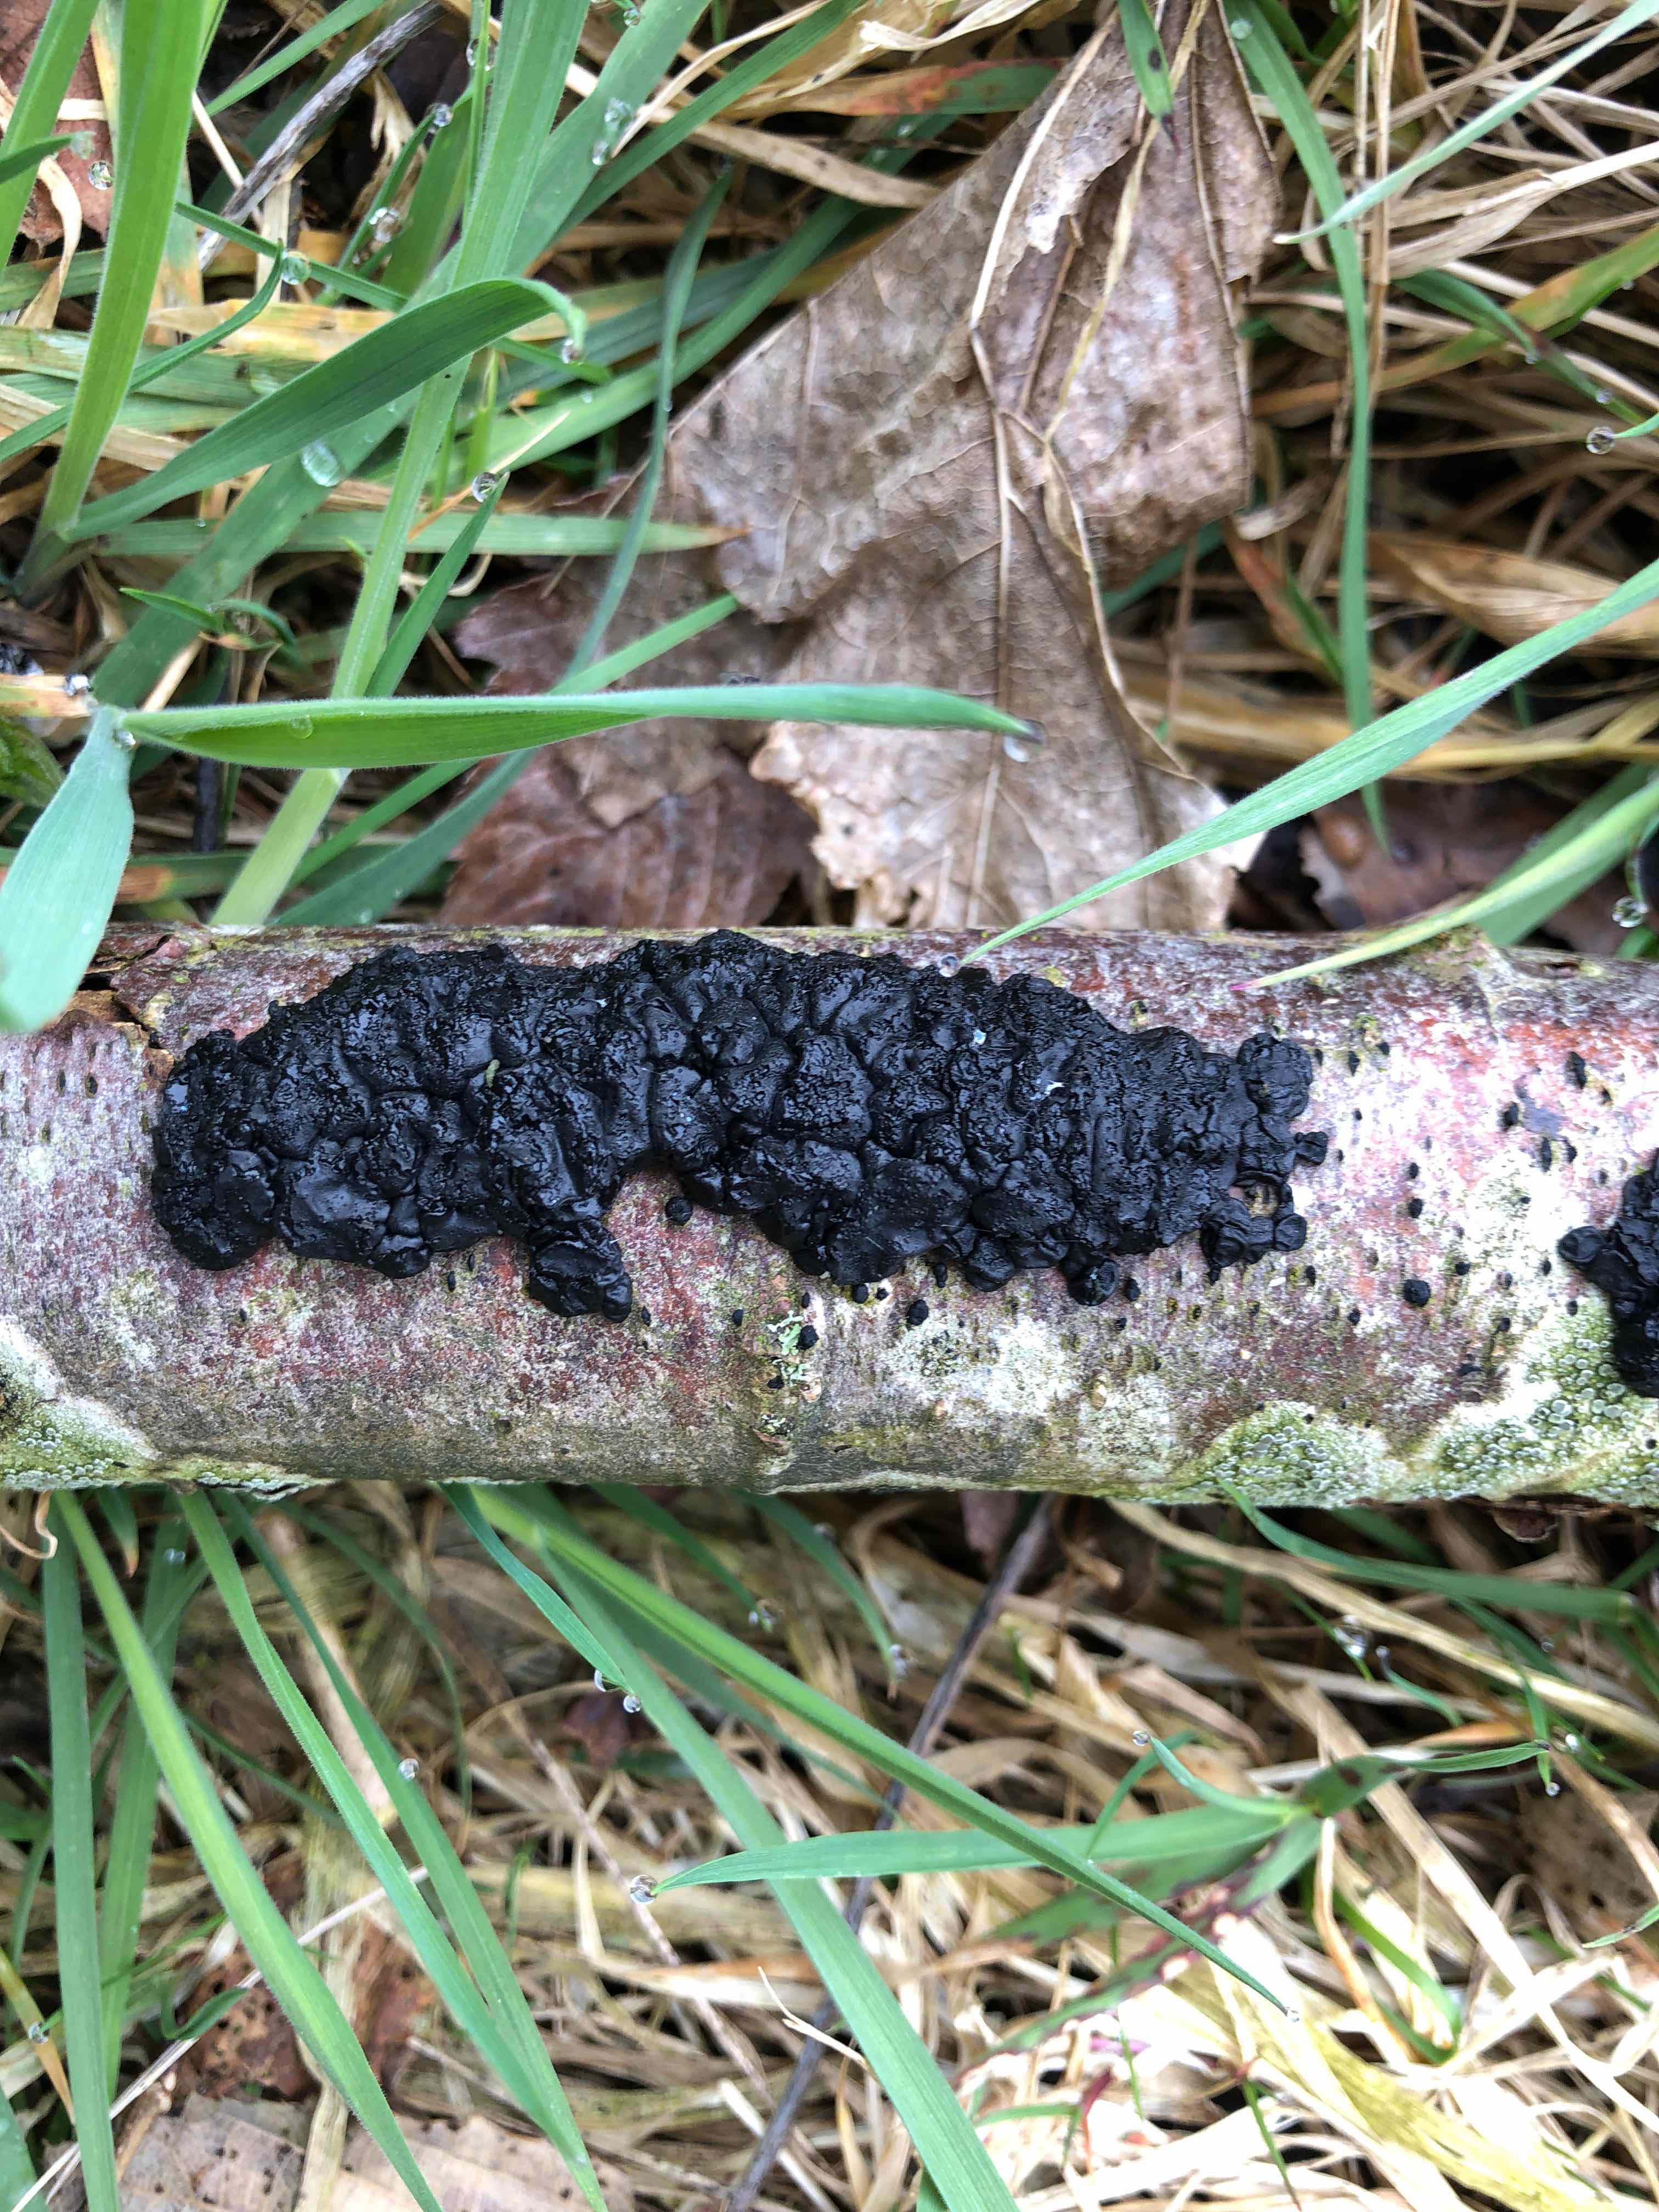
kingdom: Fungi
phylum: Basidiomycota
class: Agaricomycetes
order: Auriculariales
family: Auriculariaceae
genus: Exidia
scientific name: Exidia nigricans
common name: almindelig bævretop
